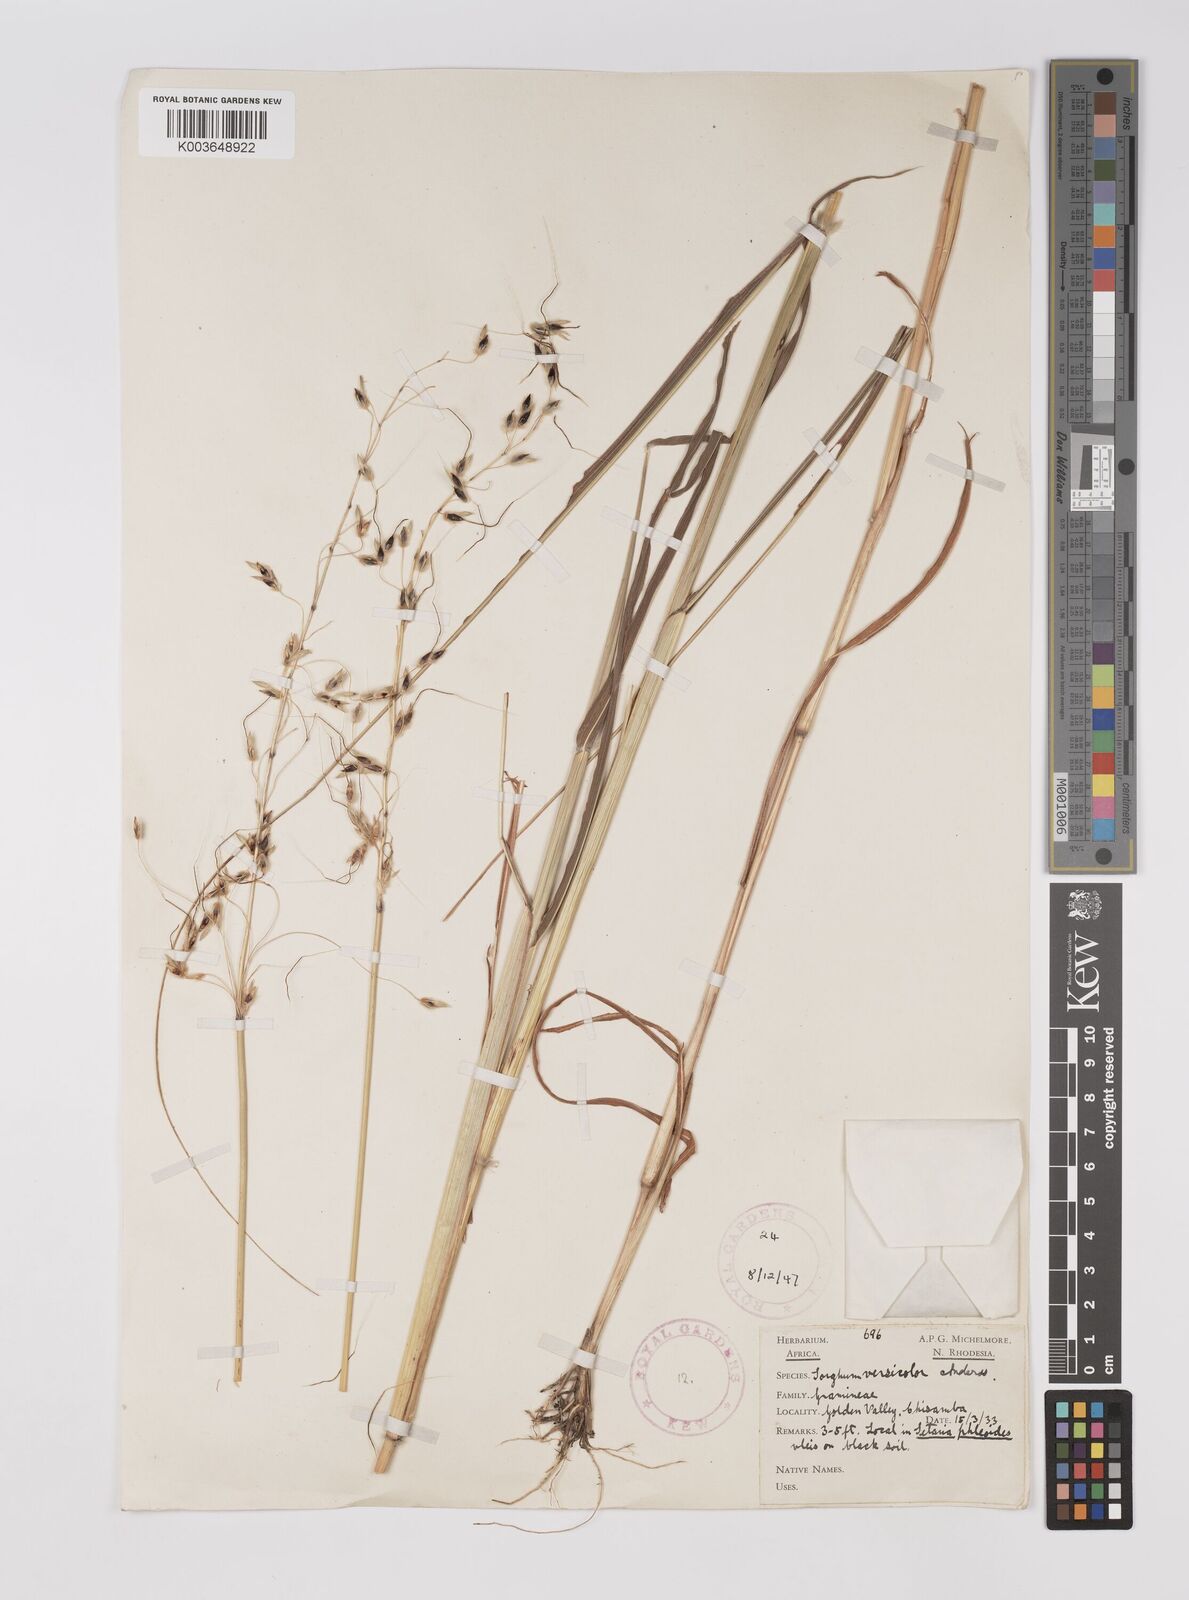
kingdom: Plantae
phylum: Tracheophyta
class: Liliopsida
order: Poales
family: Poaceae
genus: Sarga
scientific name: Sarga versicolor
